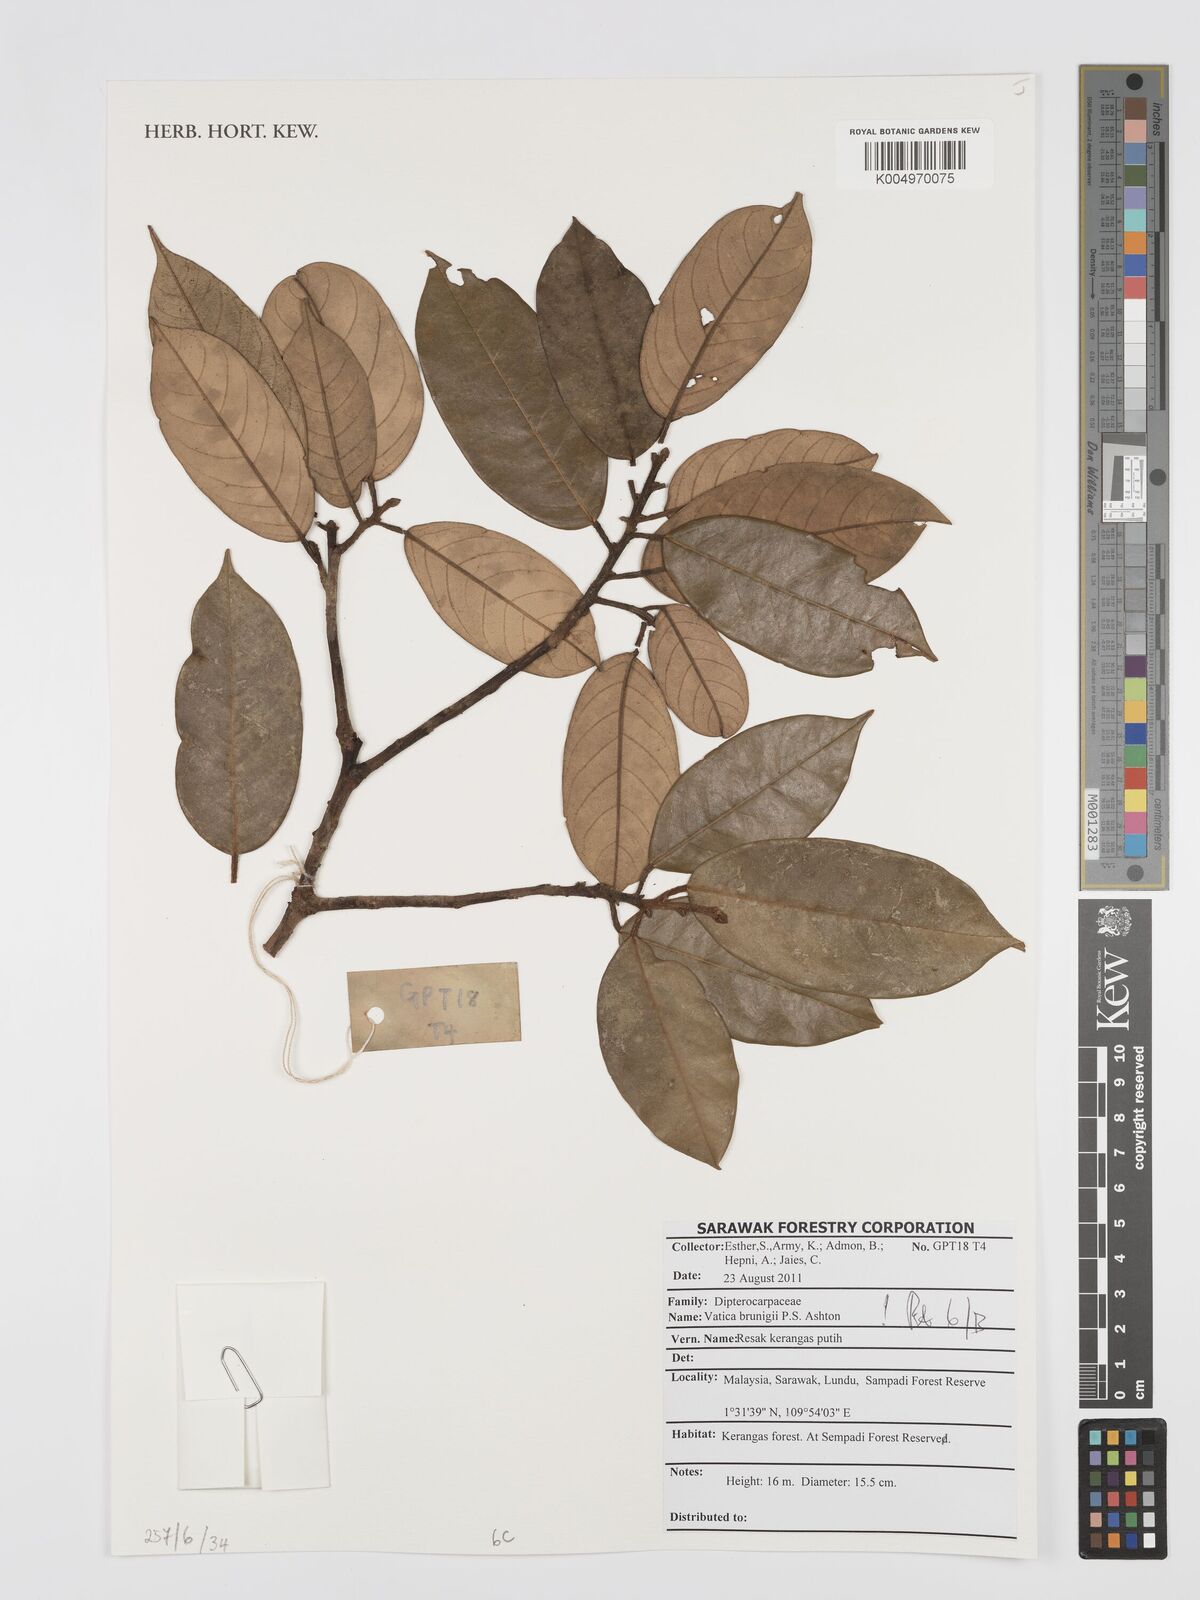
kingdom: Plantae
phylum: Tracheophyta
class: Magnoliopsida
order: Malvales
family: Dipterocarpaceae
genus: Vatica
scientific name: Vatica brunigii
